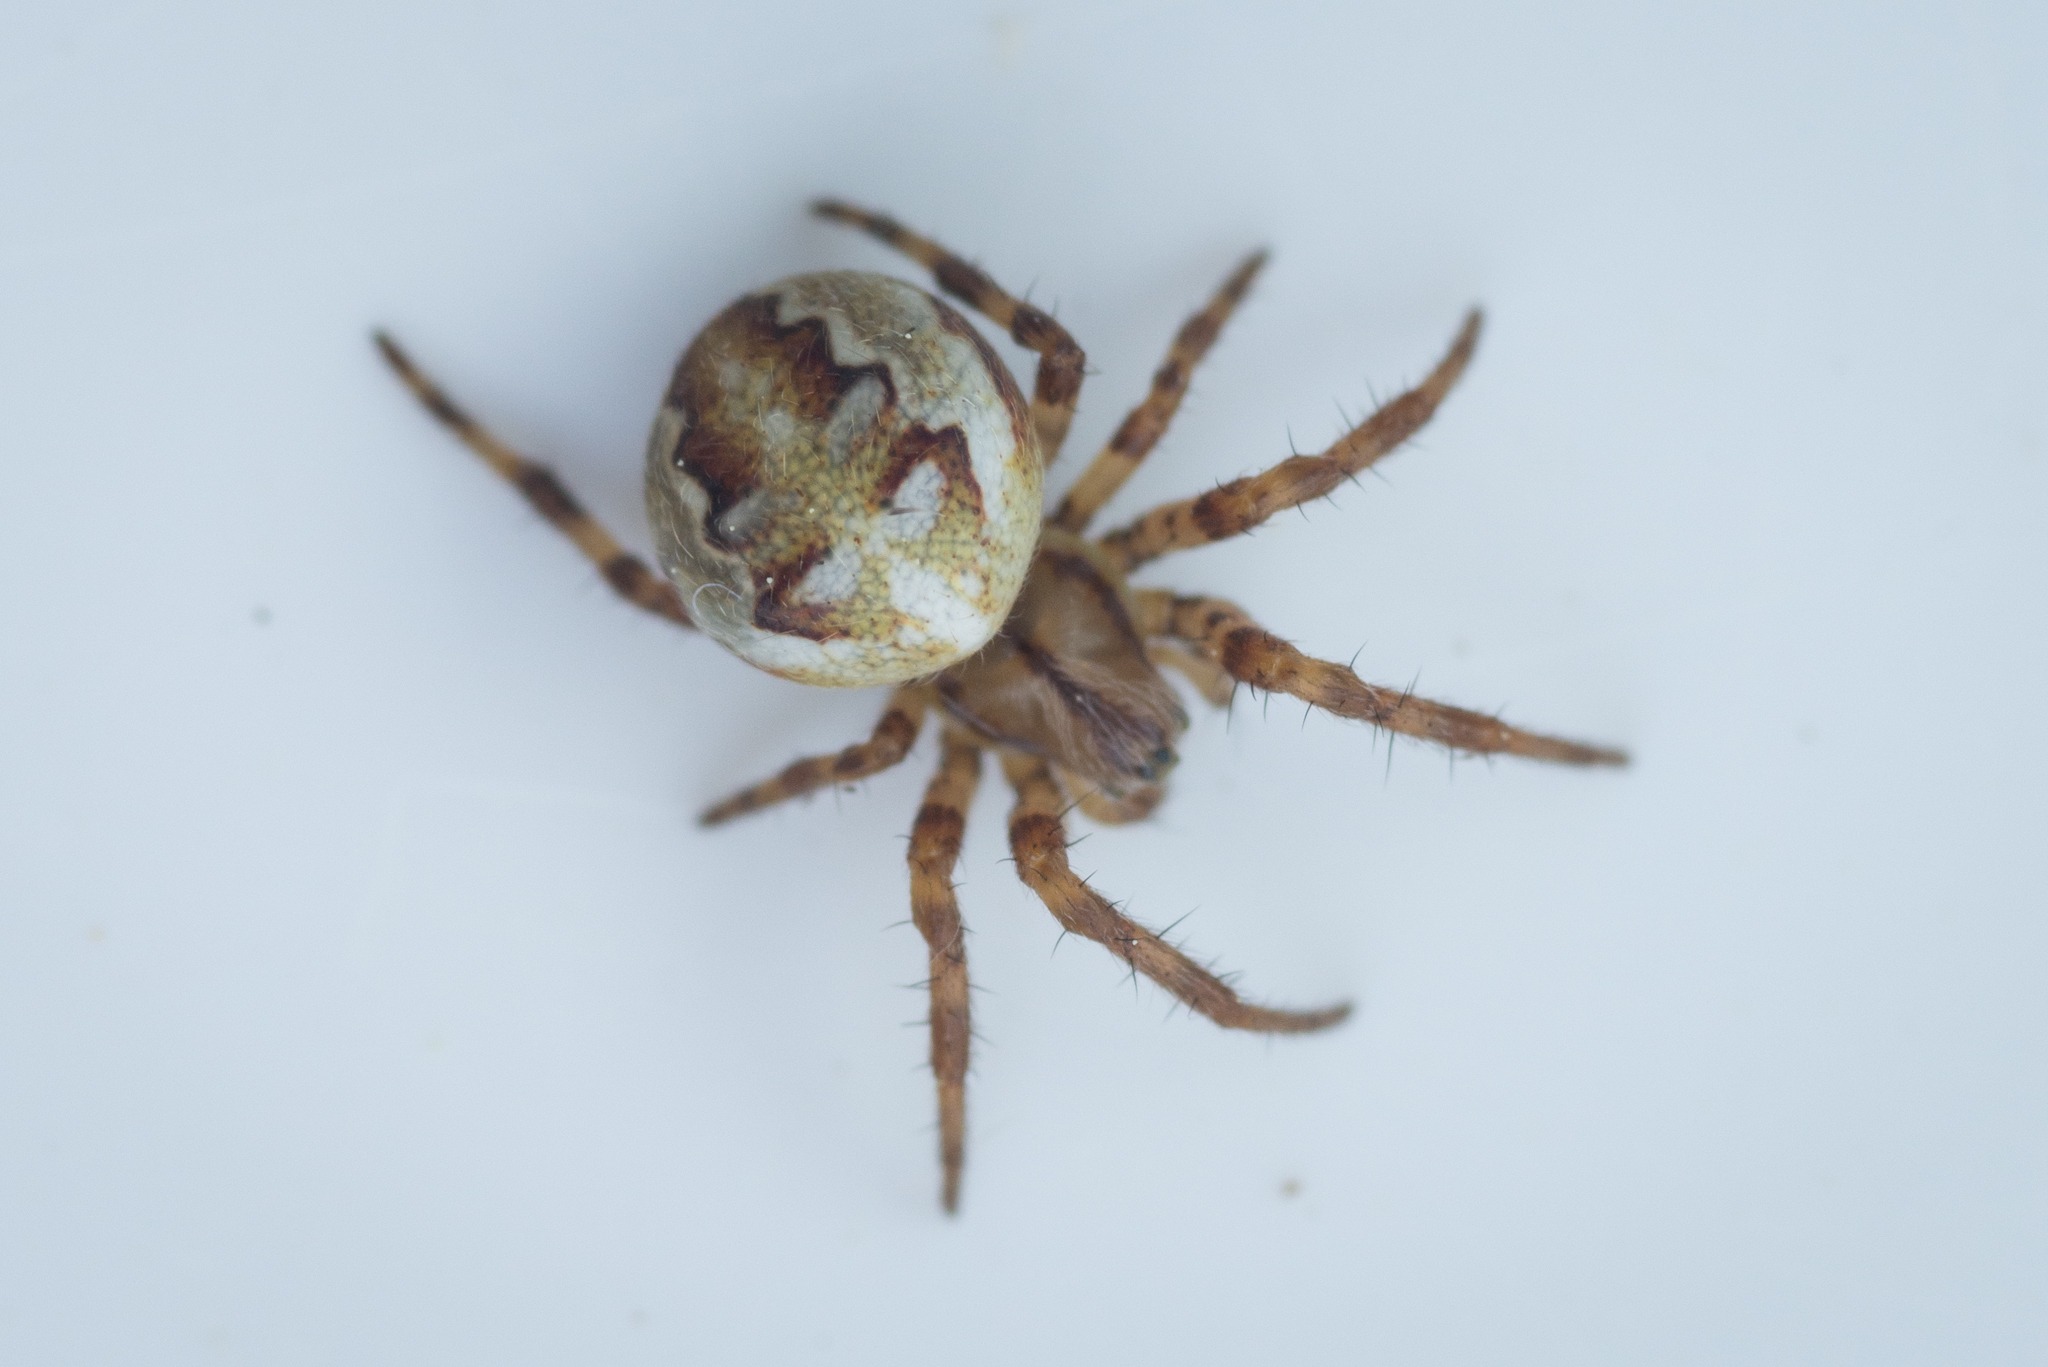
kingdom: Animalia
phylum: Arthropoda
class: Arachnida
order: Araneae
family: Araneidae
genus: Araneus
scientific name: Araneus quadratus
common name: Kvadratedderkop
